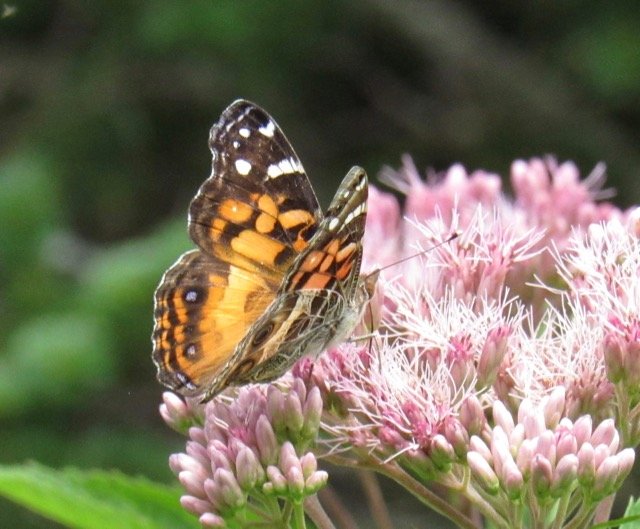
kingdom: Animalia
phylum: Arthropoda
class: Insecta
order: Lepidoptera
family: Nymphalidae
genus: Vanessa
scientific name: Vanessa virginiensis
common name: American Lady
